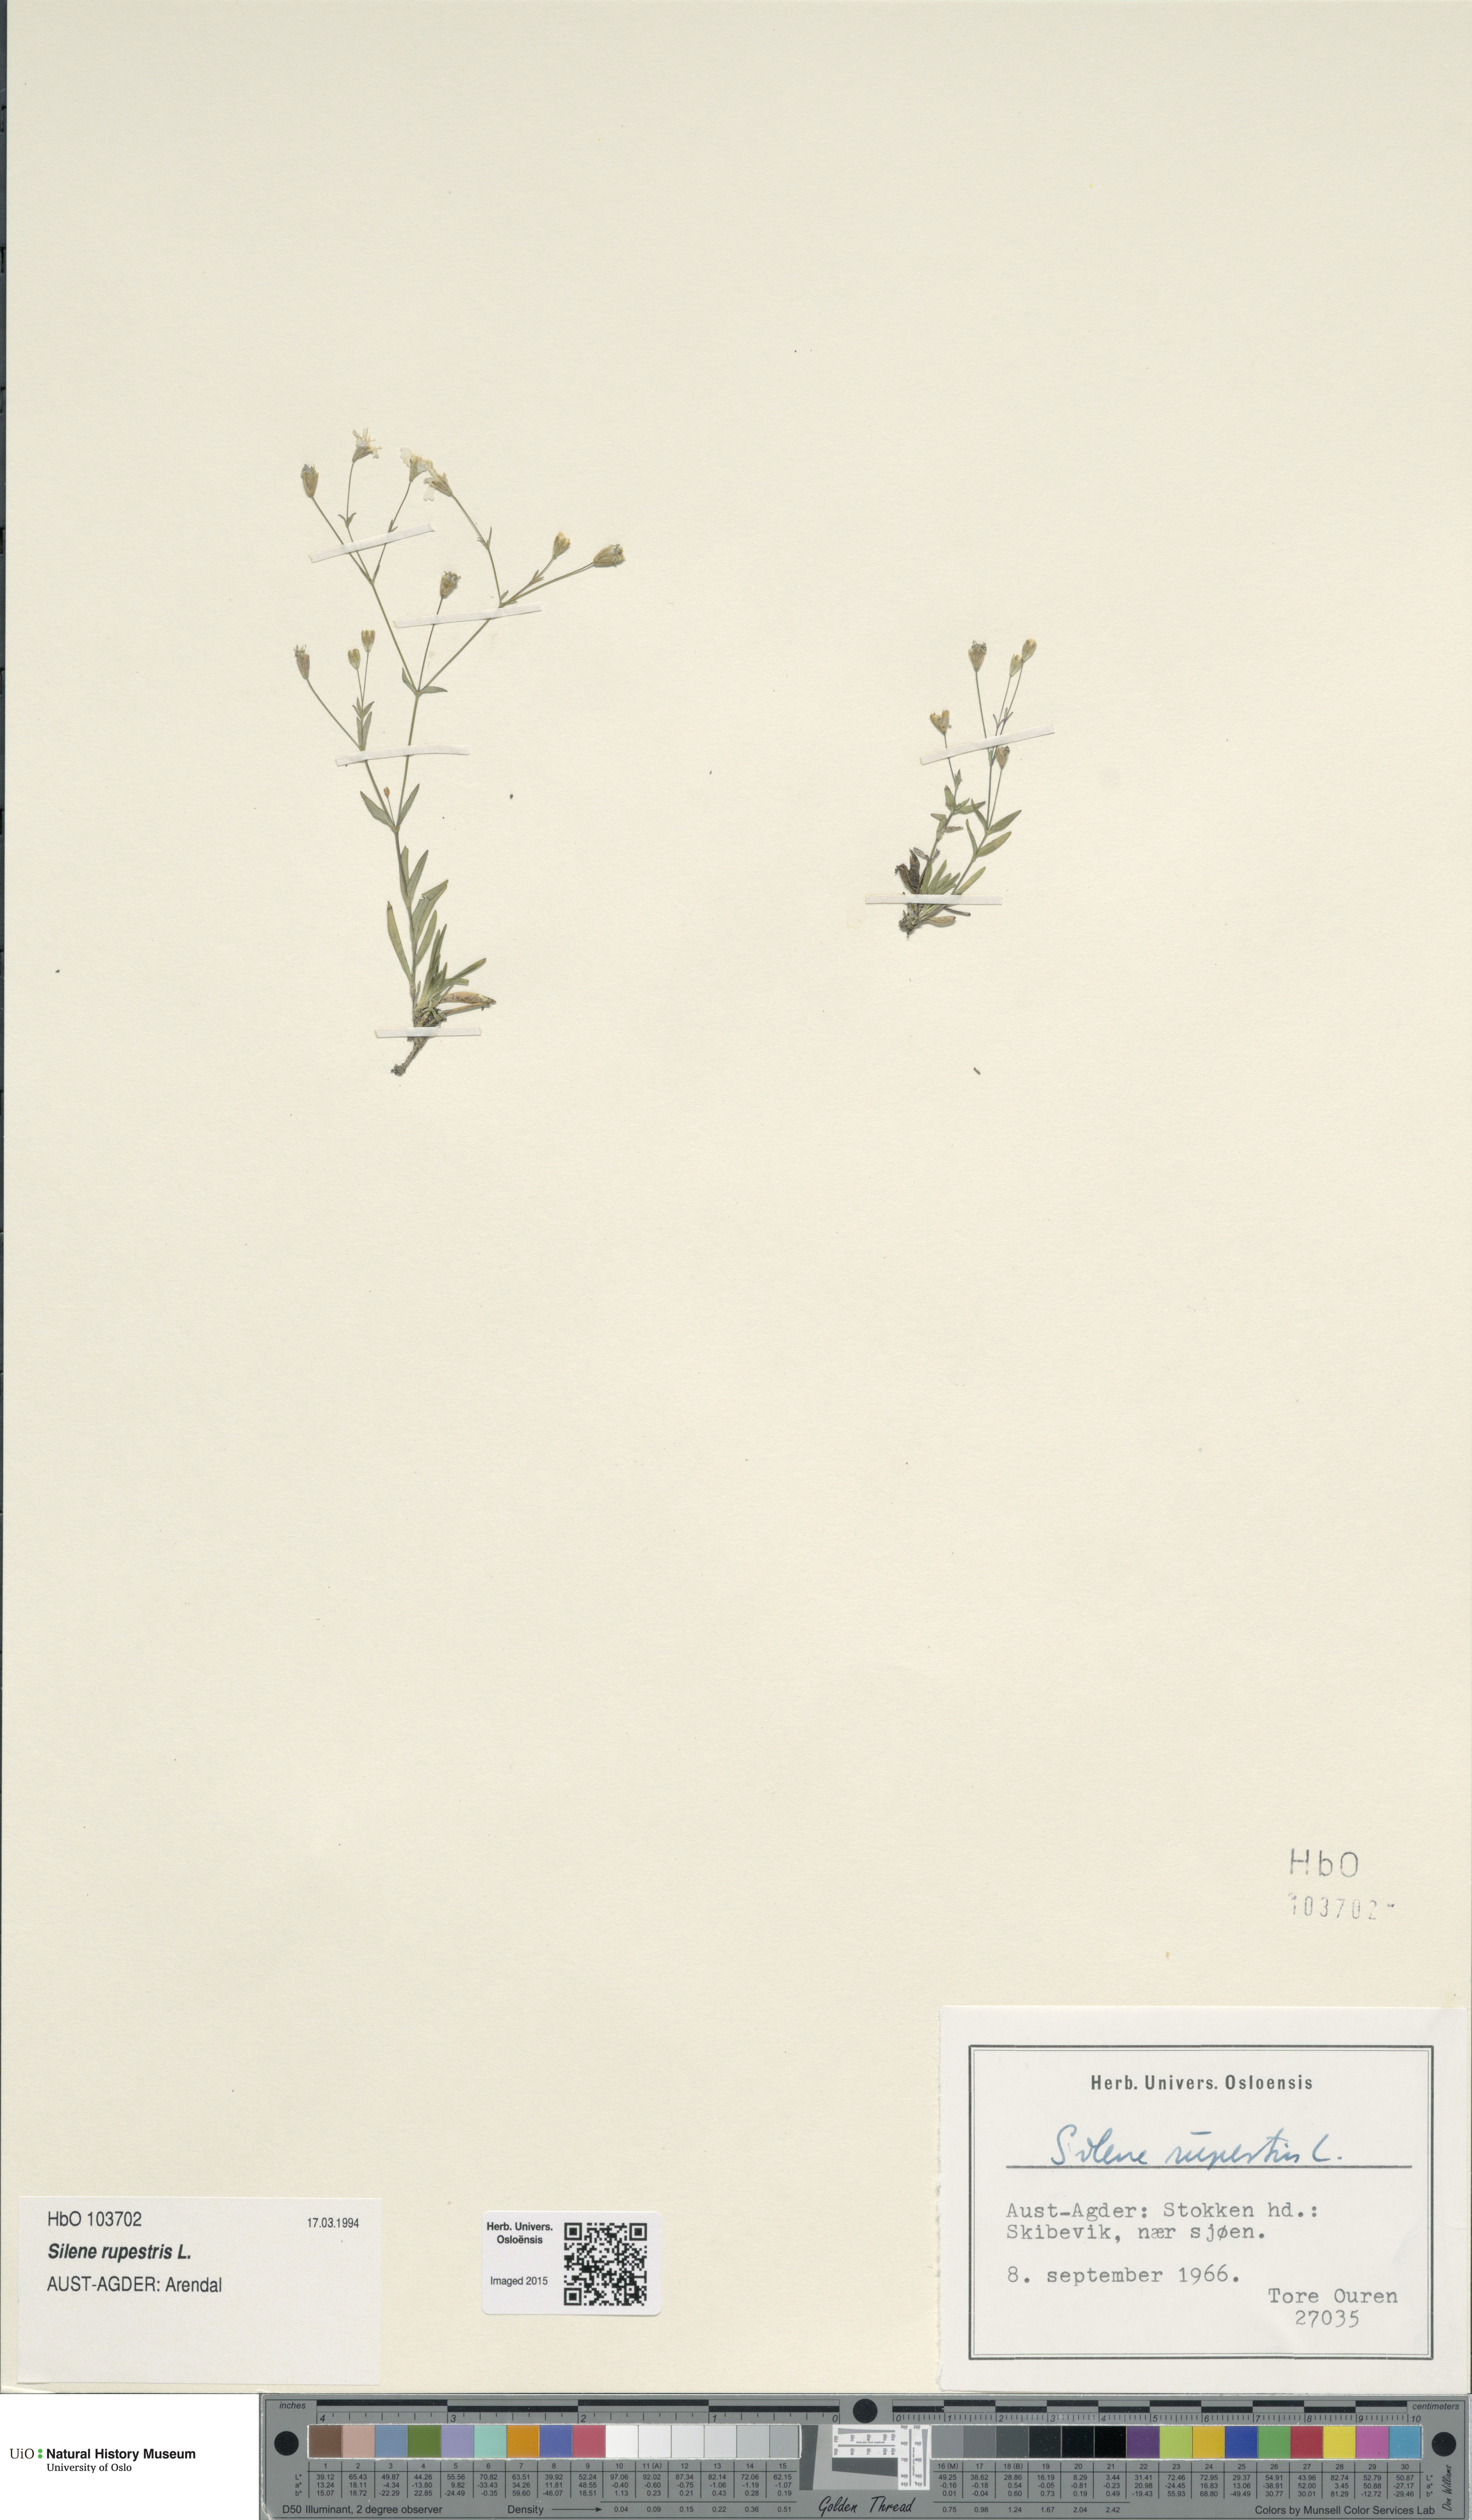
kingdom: Plantae
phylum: Tracheophyta
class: Magnoliopsida
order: Caryophyllales
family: Caryophyllaceae
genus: Atocion
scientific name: Atocion rupestre
